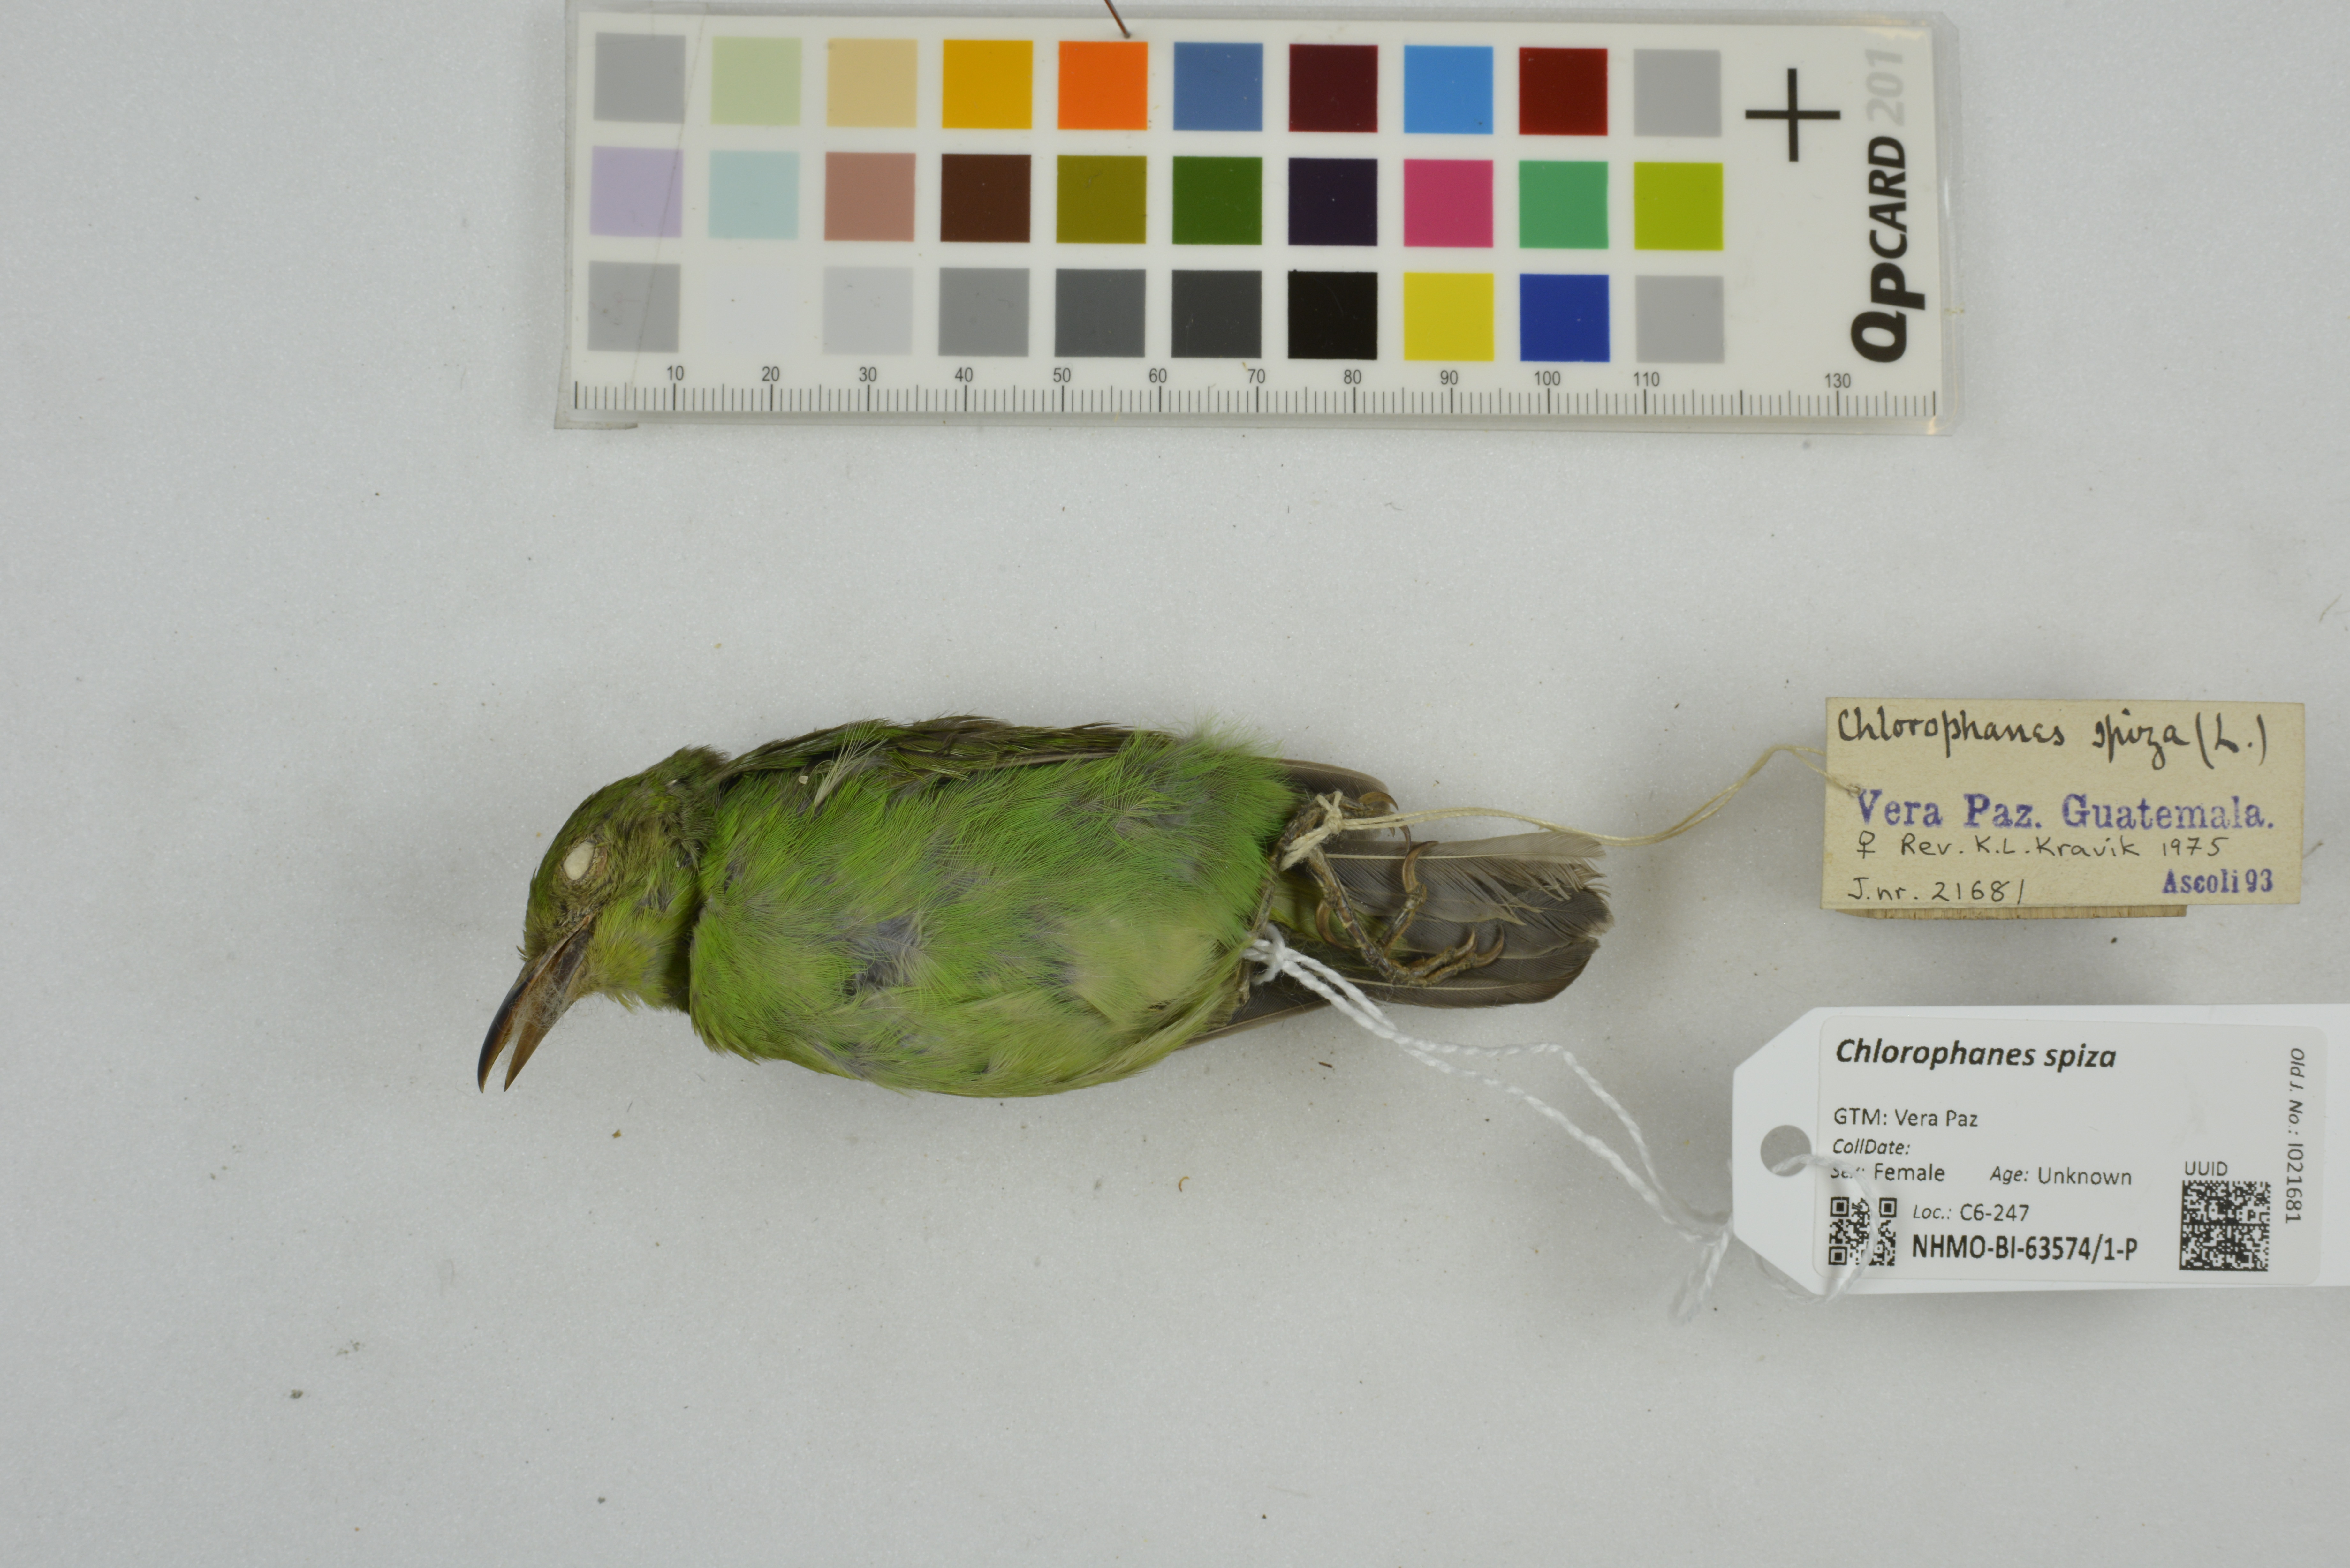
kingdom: Animalia
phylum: Chordata
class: Aves
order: Passeriformes
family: Thraupidae
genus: Chlorophanes
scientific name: Chlorophanes spiza
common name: Green honeycreeper
